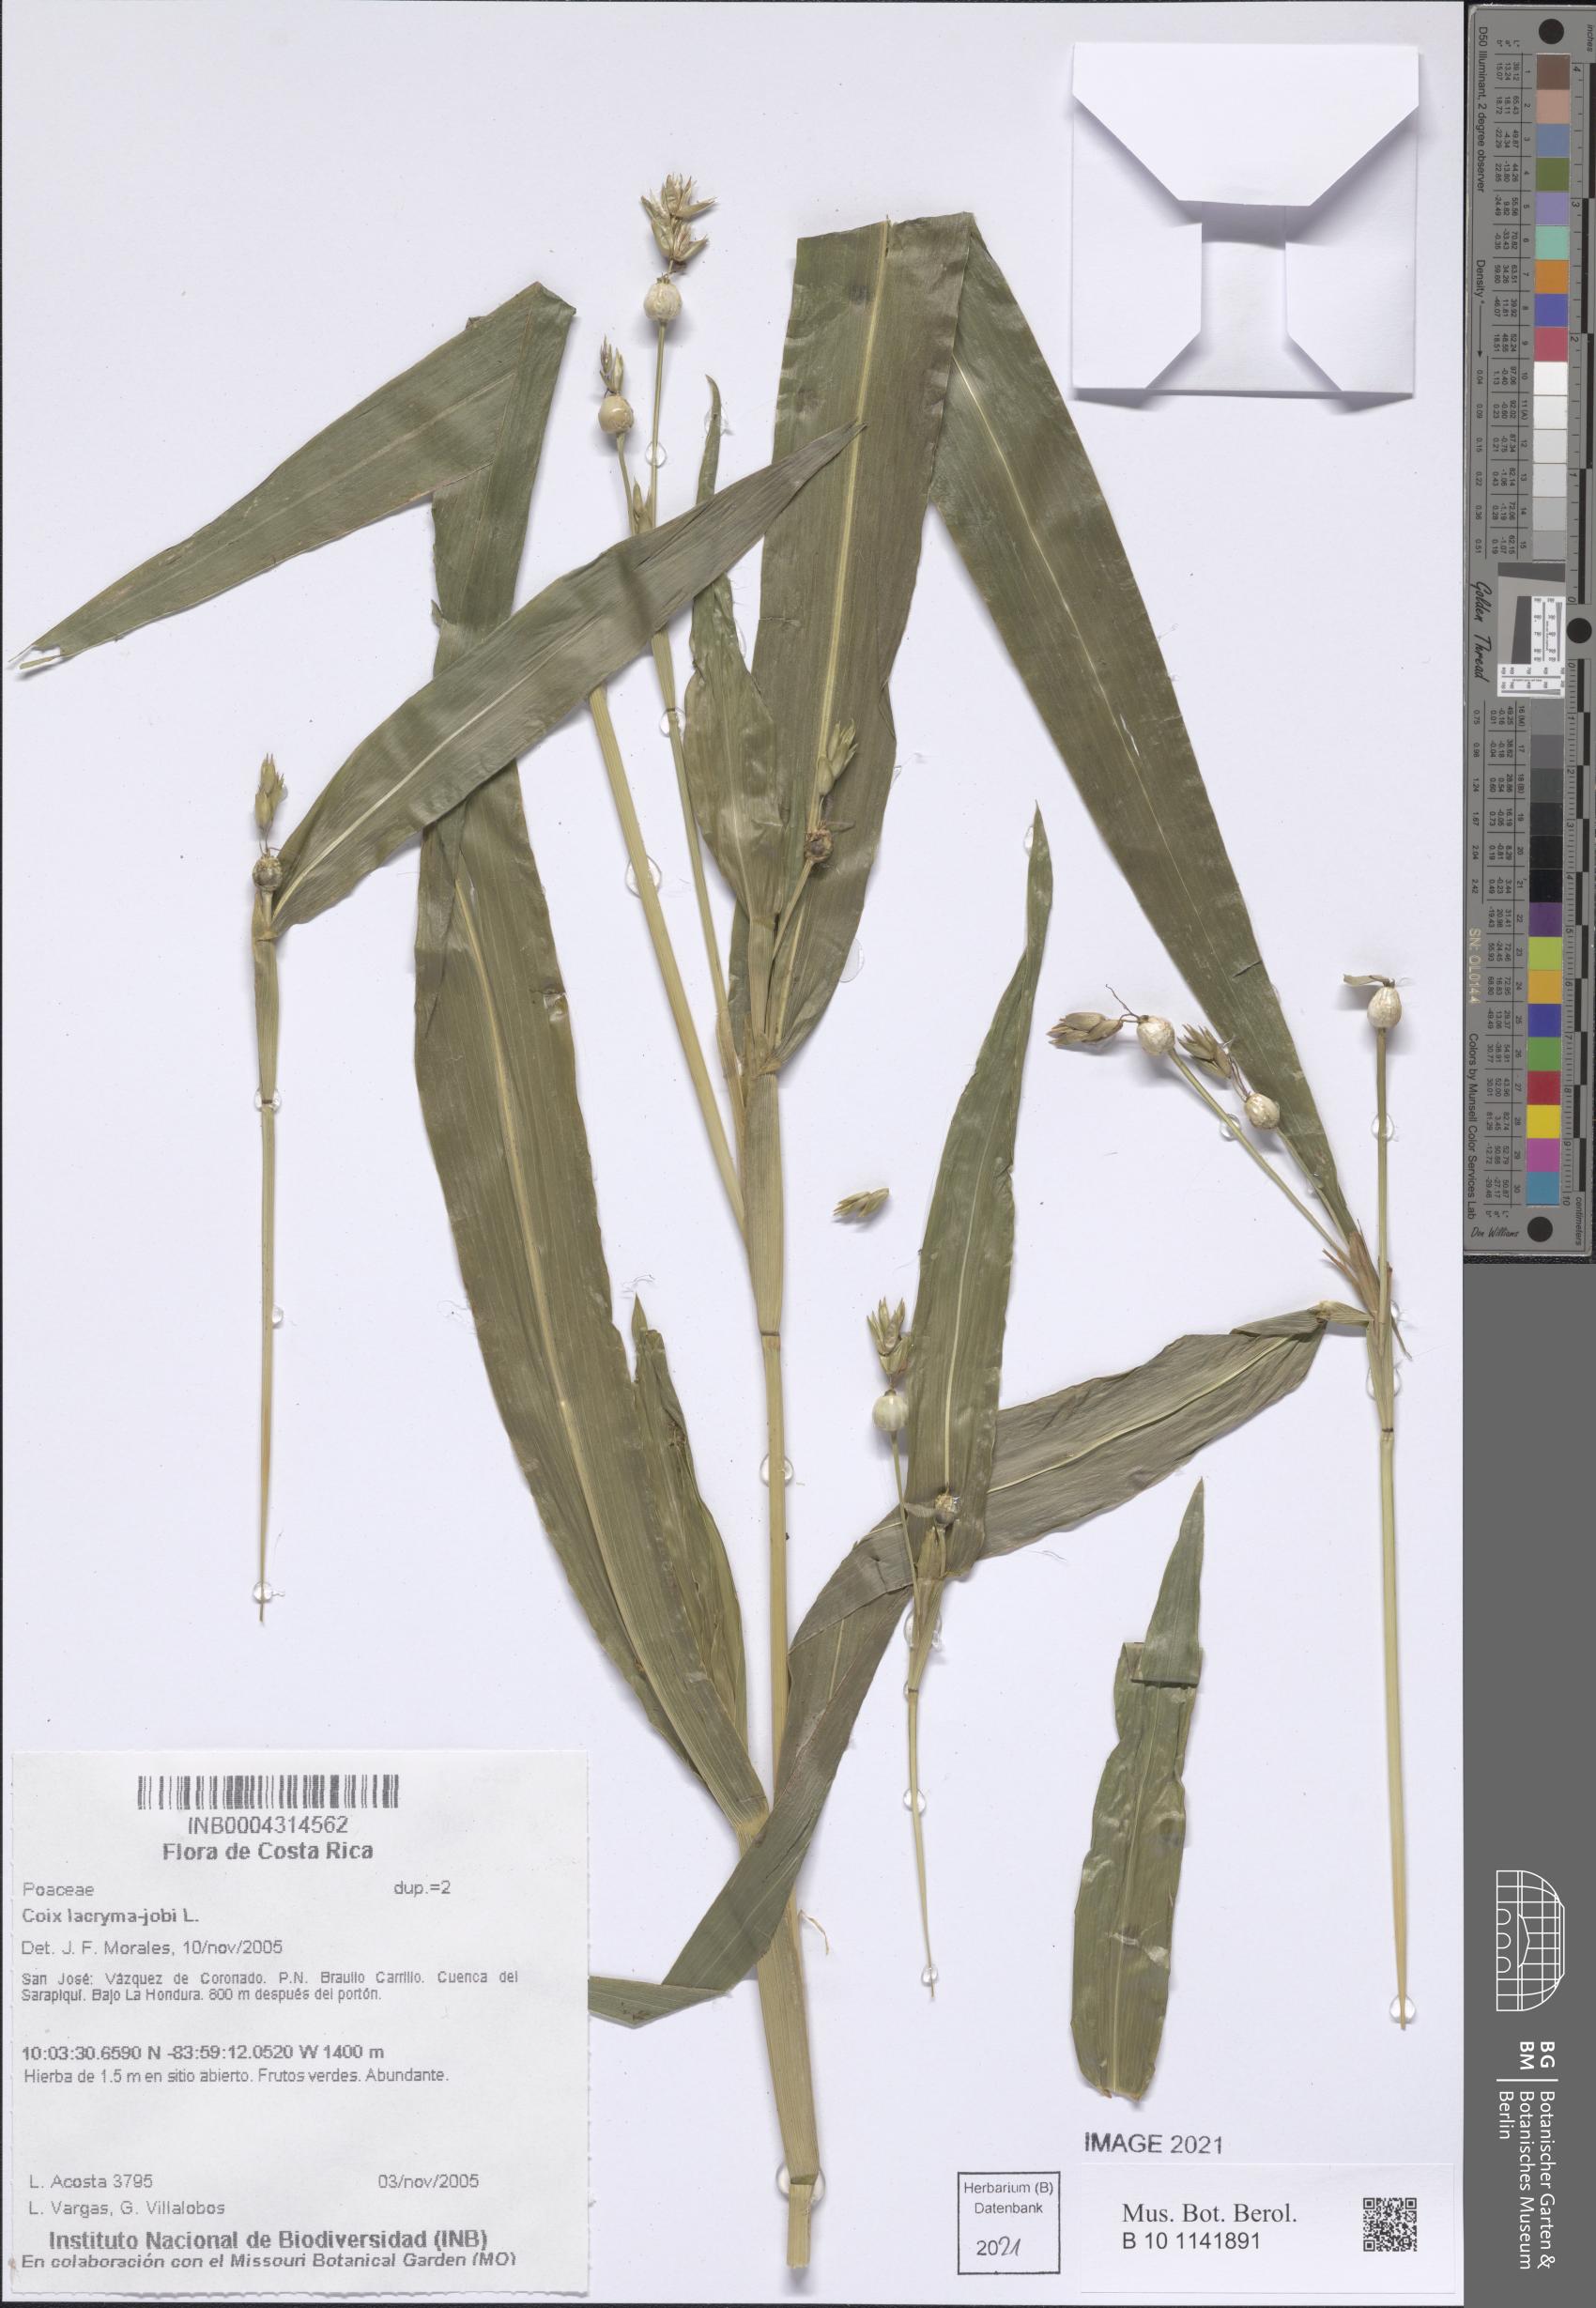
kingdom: Plantae
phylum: Tracheophyta
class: Liliopsida
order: Poales
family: Poaceae
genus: Coix
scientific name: Coix lacryma-jobi
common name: Job's tears
